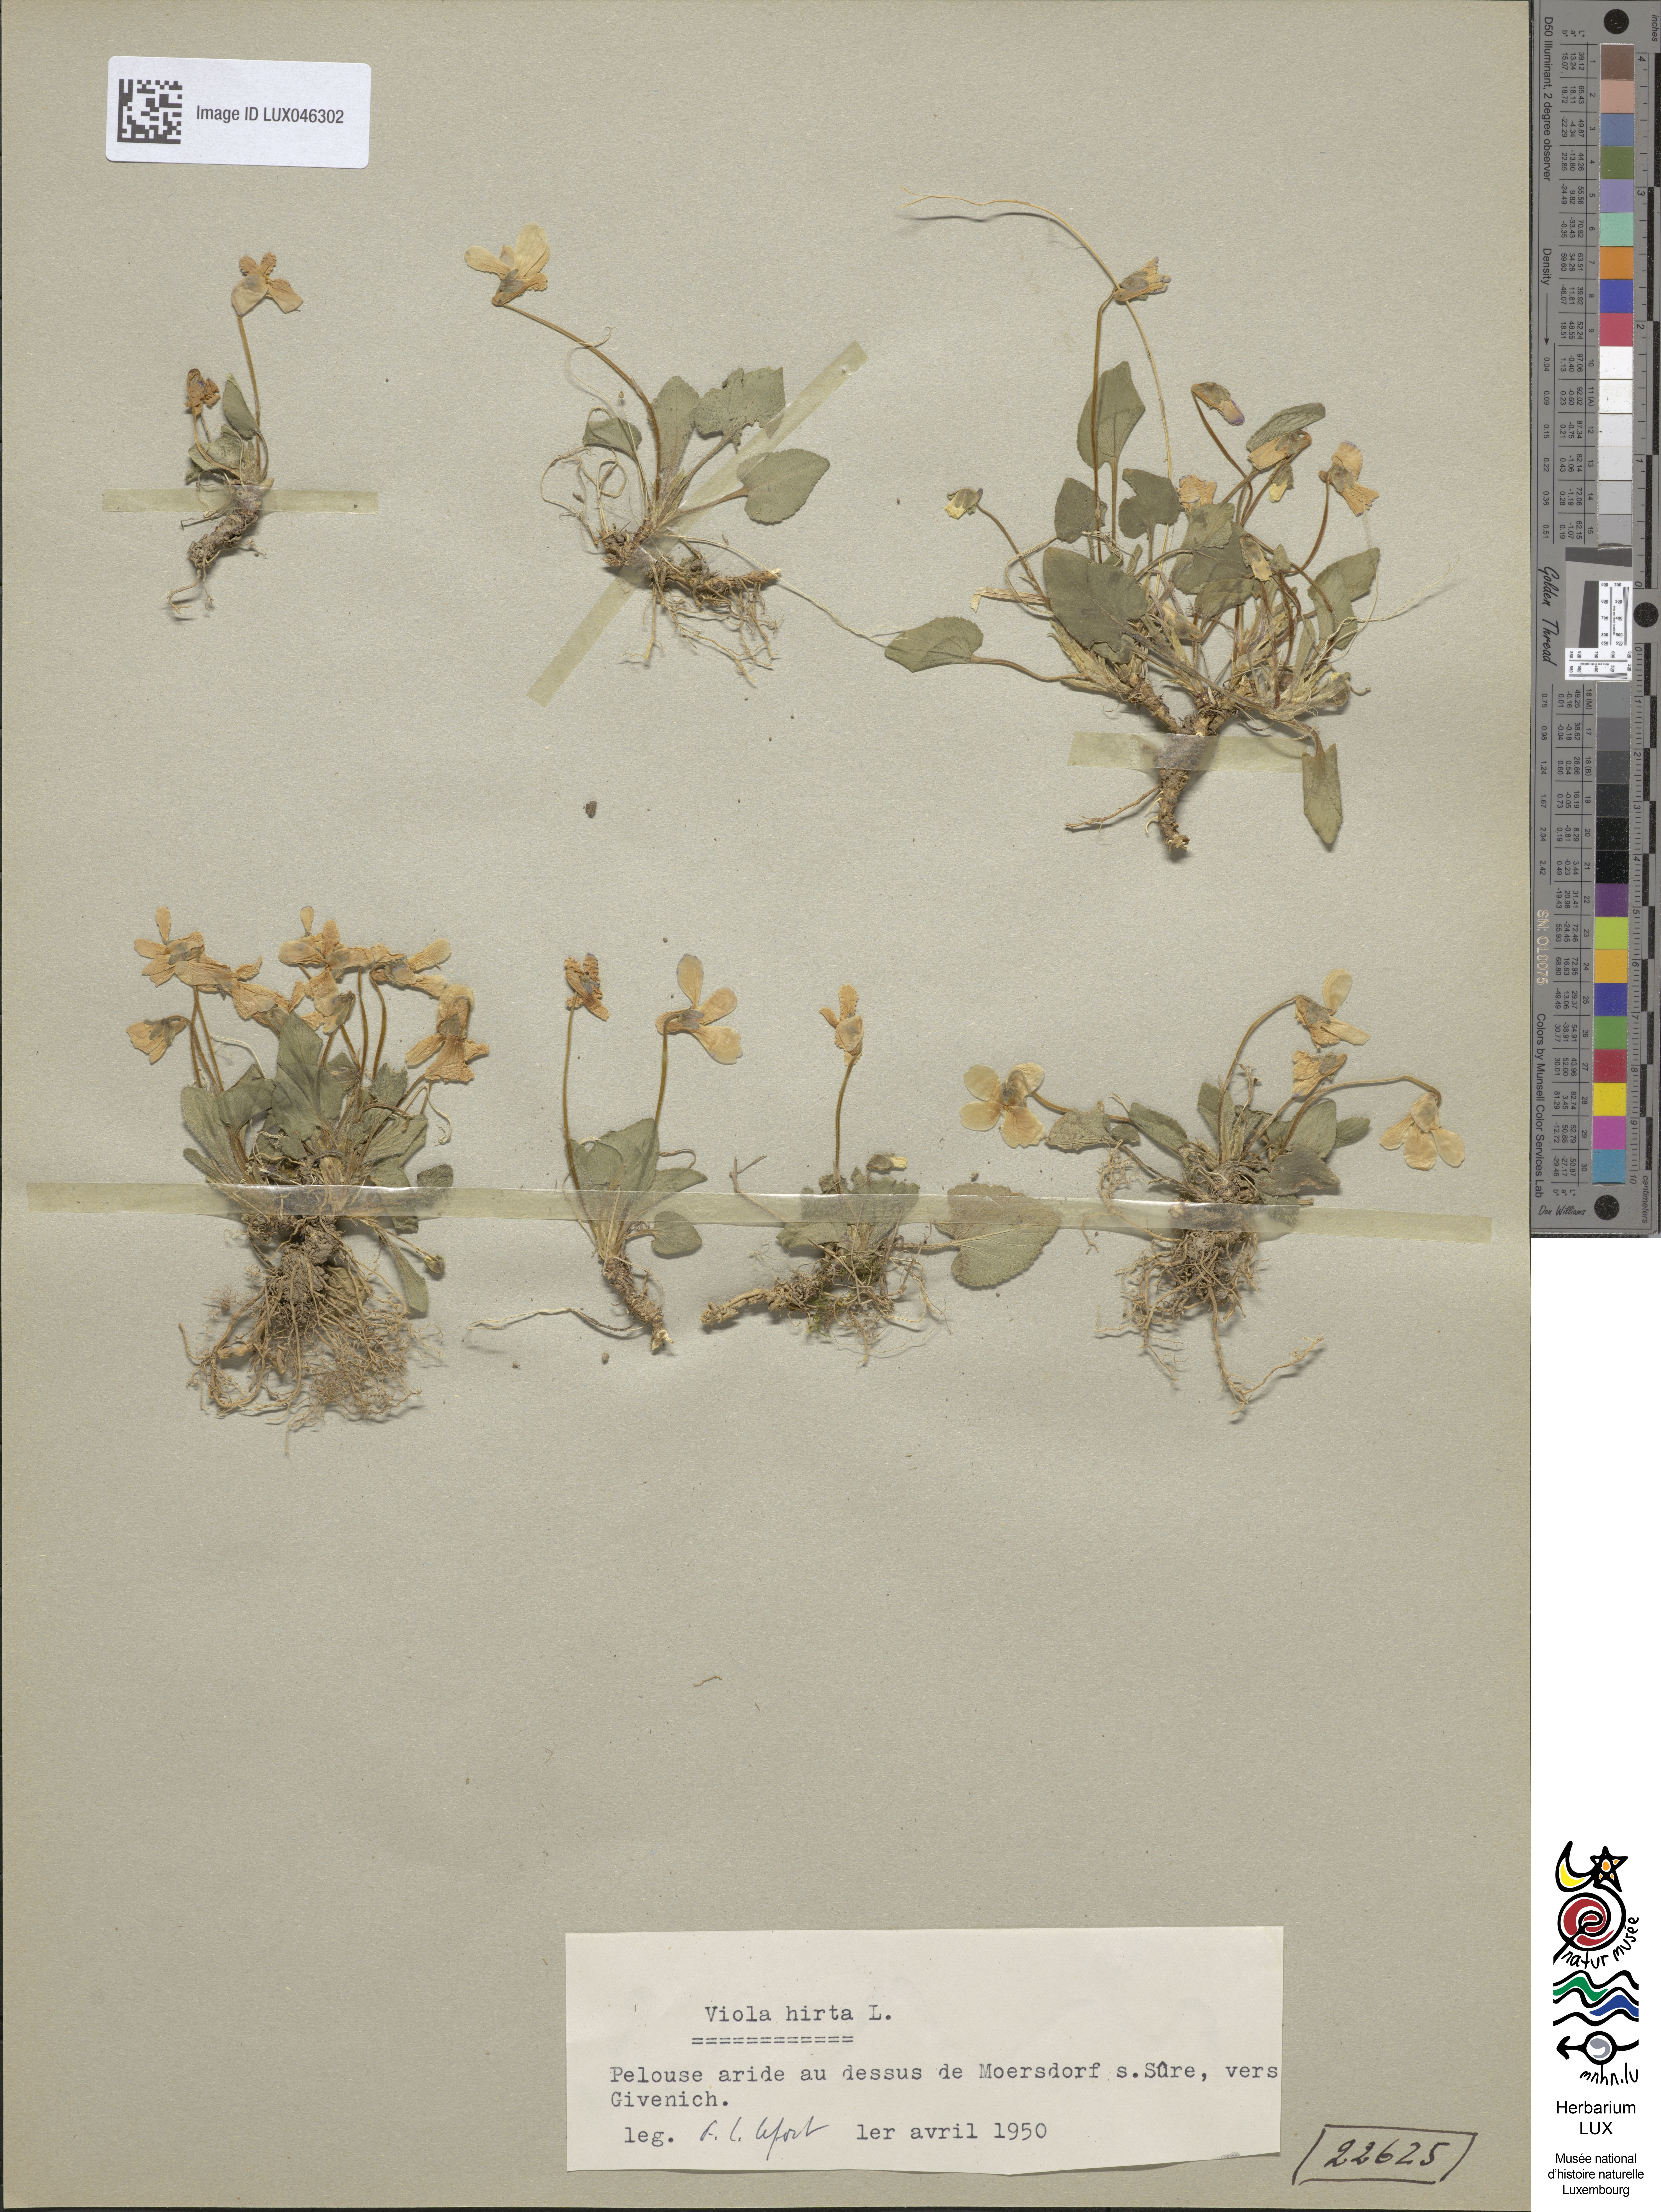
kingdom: Plantae
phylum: Tracheophyta
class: Magnoliopsida
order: Malpighiales
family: Violaceae
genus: Viola
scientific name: Viola hirta
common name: Hairy violet
